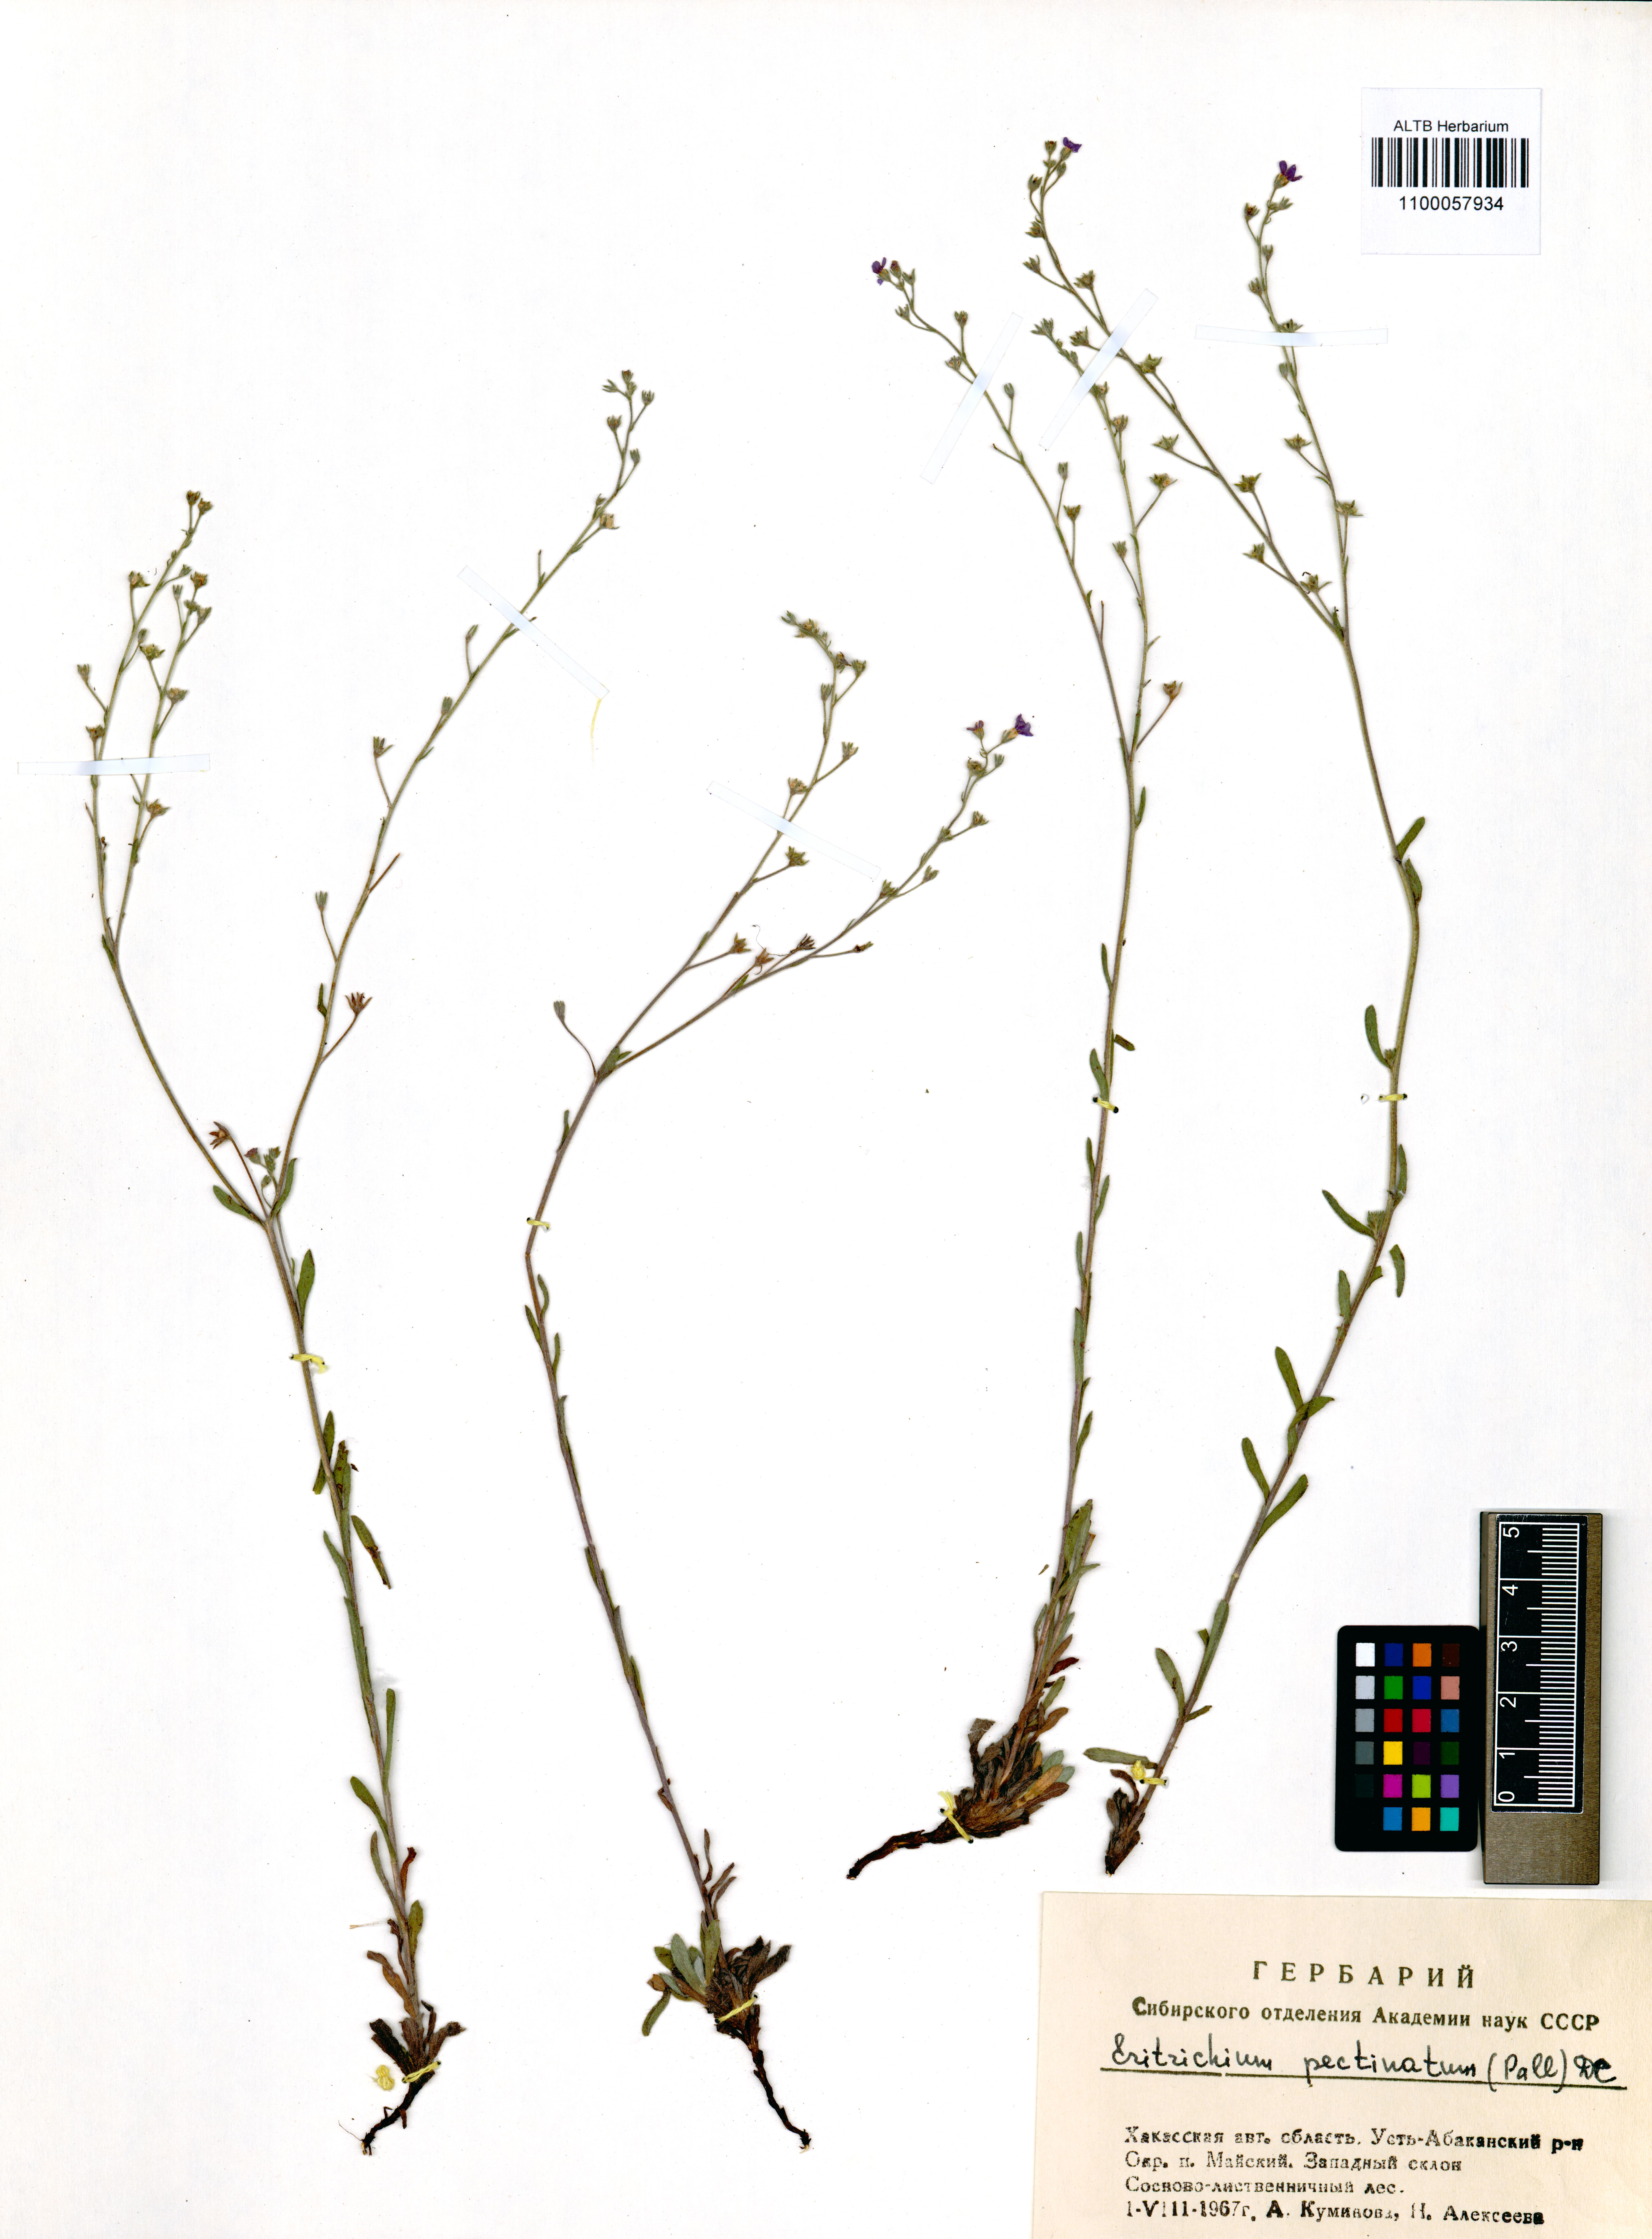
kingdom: Plantae
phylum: Tracheophyta
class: Magnoliopsida
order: Boraginales
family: Boraginaceae
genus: Eritrichium
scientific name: Eritrichium pectinatum
